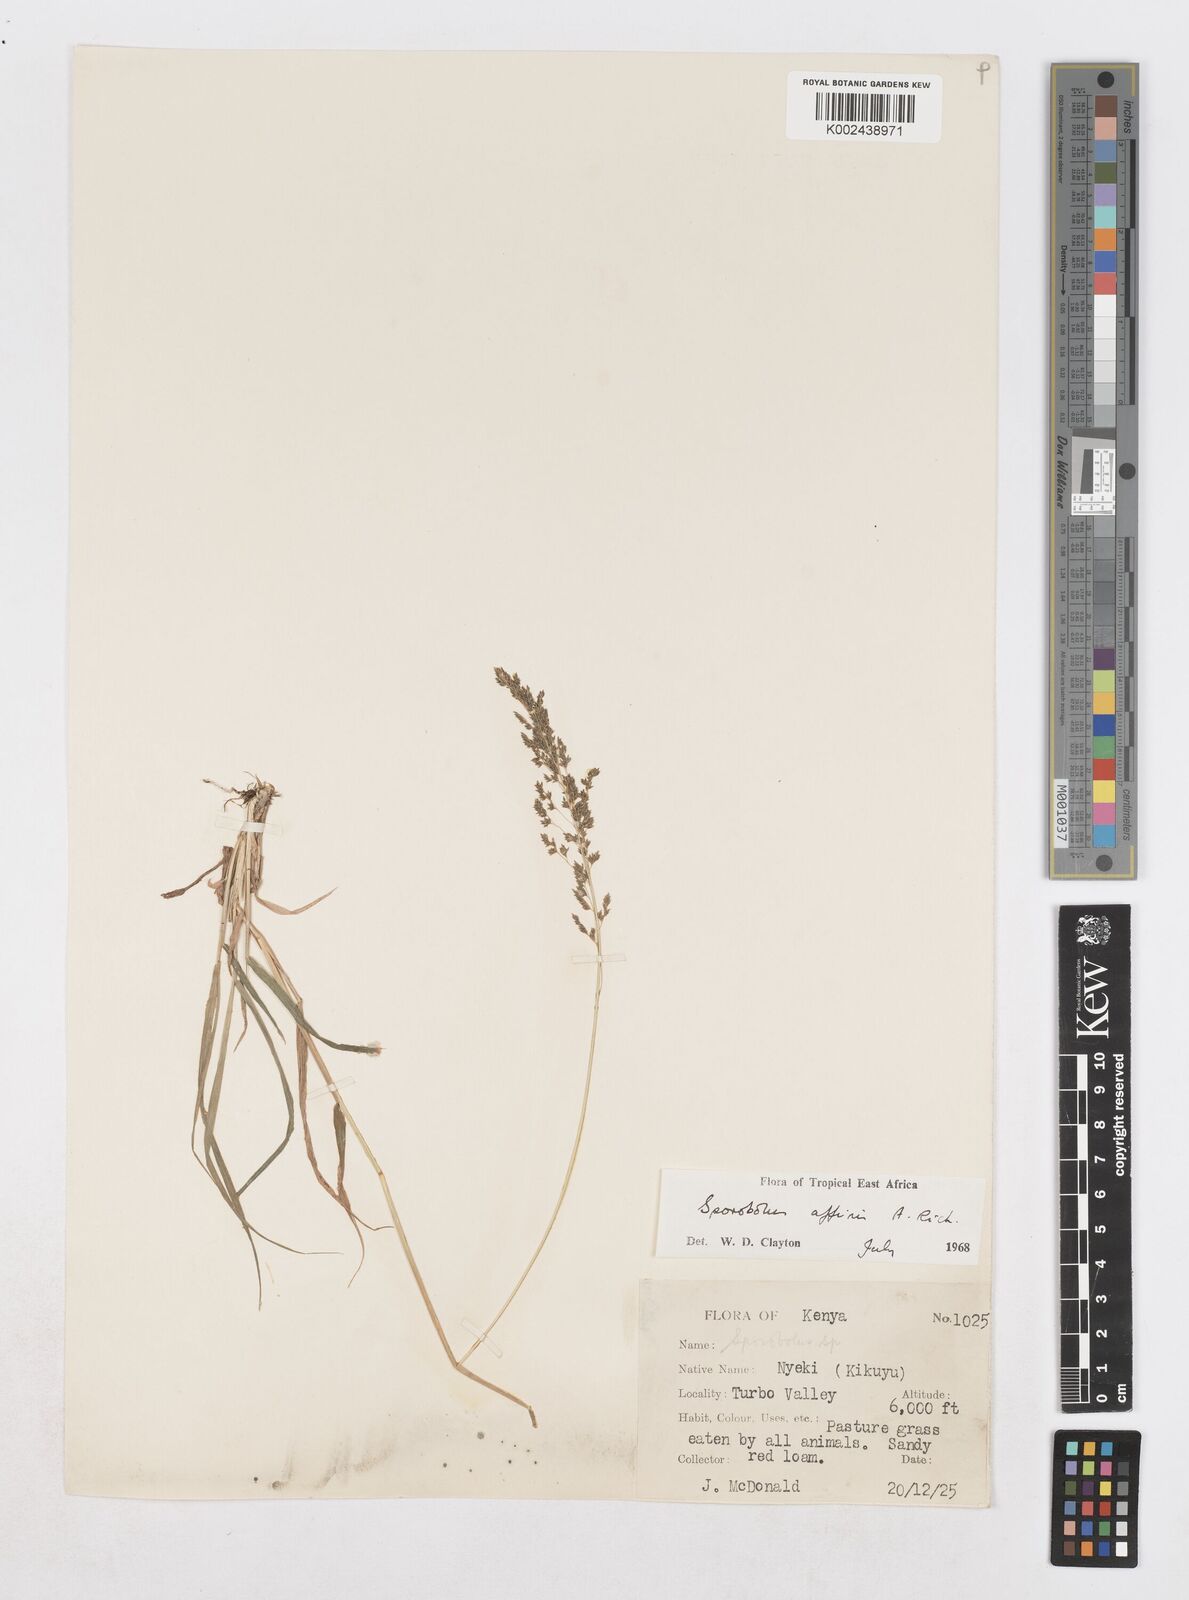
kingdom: Plantae
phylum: Tracheophyta
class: Liliopsida
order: Poales
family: Poaceae
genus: Sporobolus
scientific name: Sporobolus confinis
